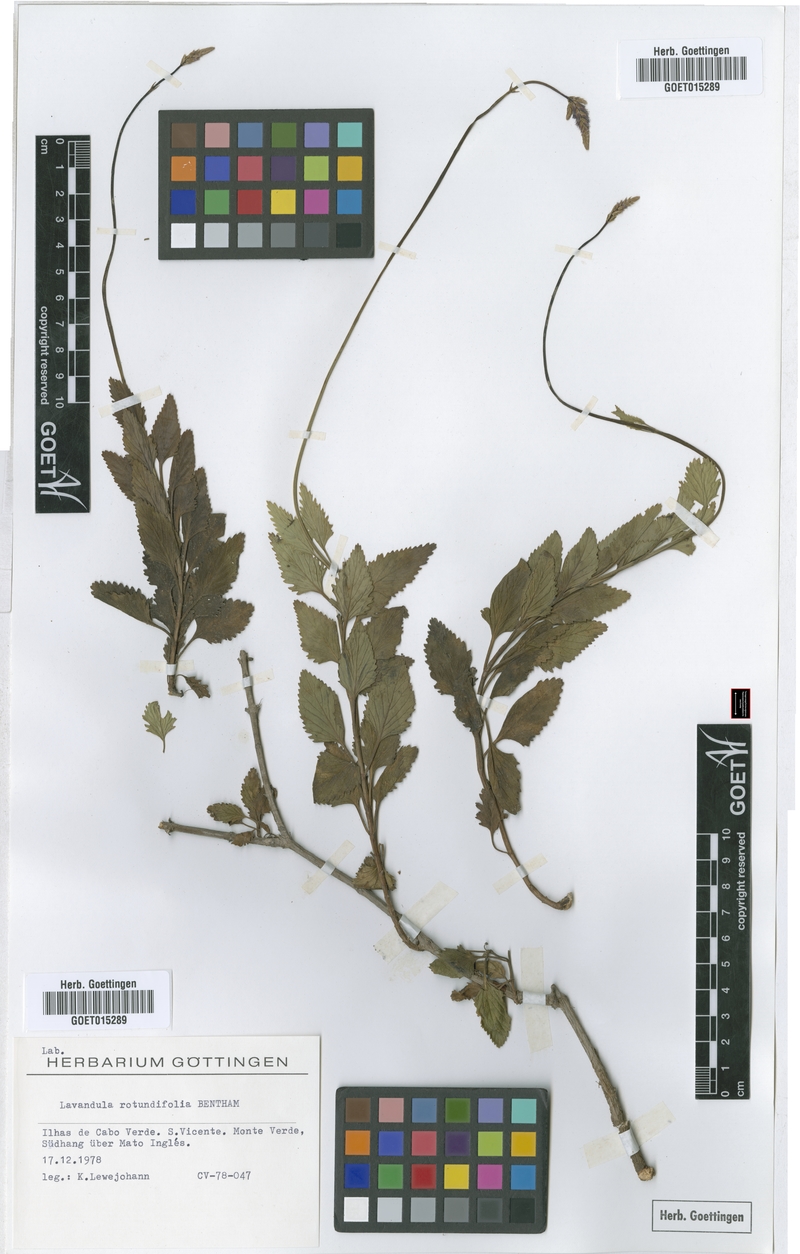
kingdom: Plantae
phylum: Tracheophyta
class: Magnoliopsida
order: Lamiales
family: Lamiaceae
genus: Lavandula
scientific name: Lavandula rotundifolia
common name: Round-leaf lavender
